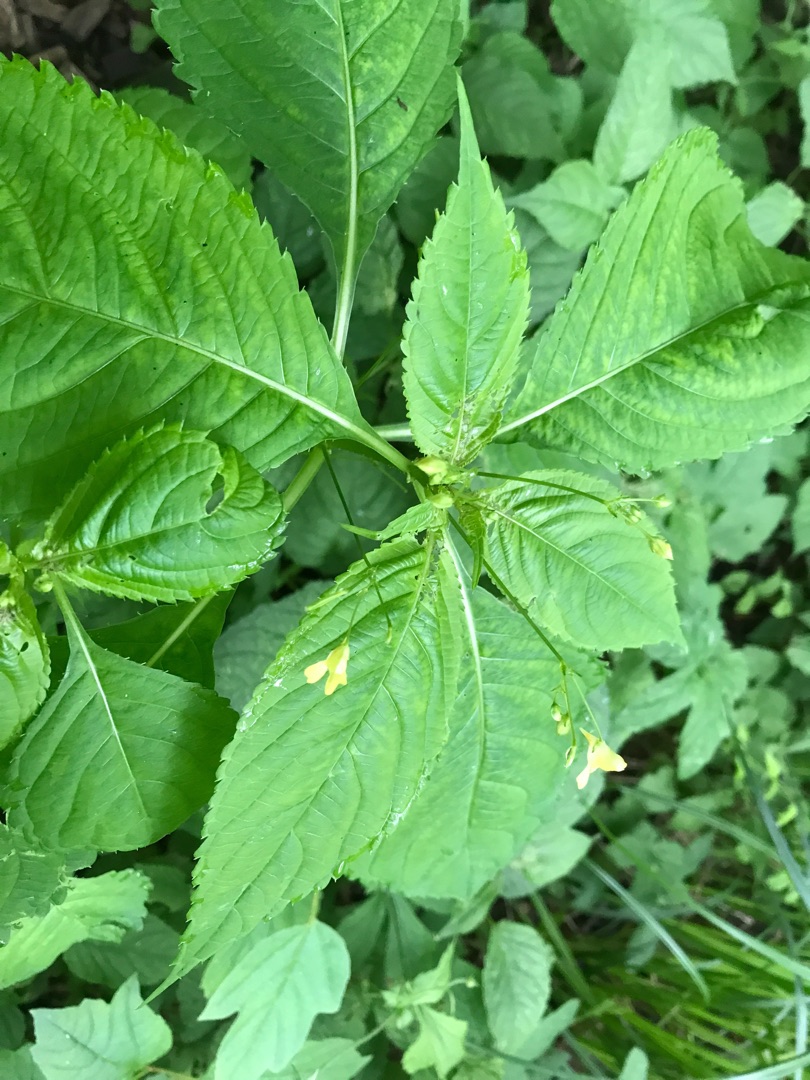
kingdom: Plantae
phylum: Tracheophyta
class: Magnoliopsida
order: Ericales
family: Balsaminaceae
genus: Impatiens
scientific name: Impatiens parviflora
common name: Småblomstret balsamin
